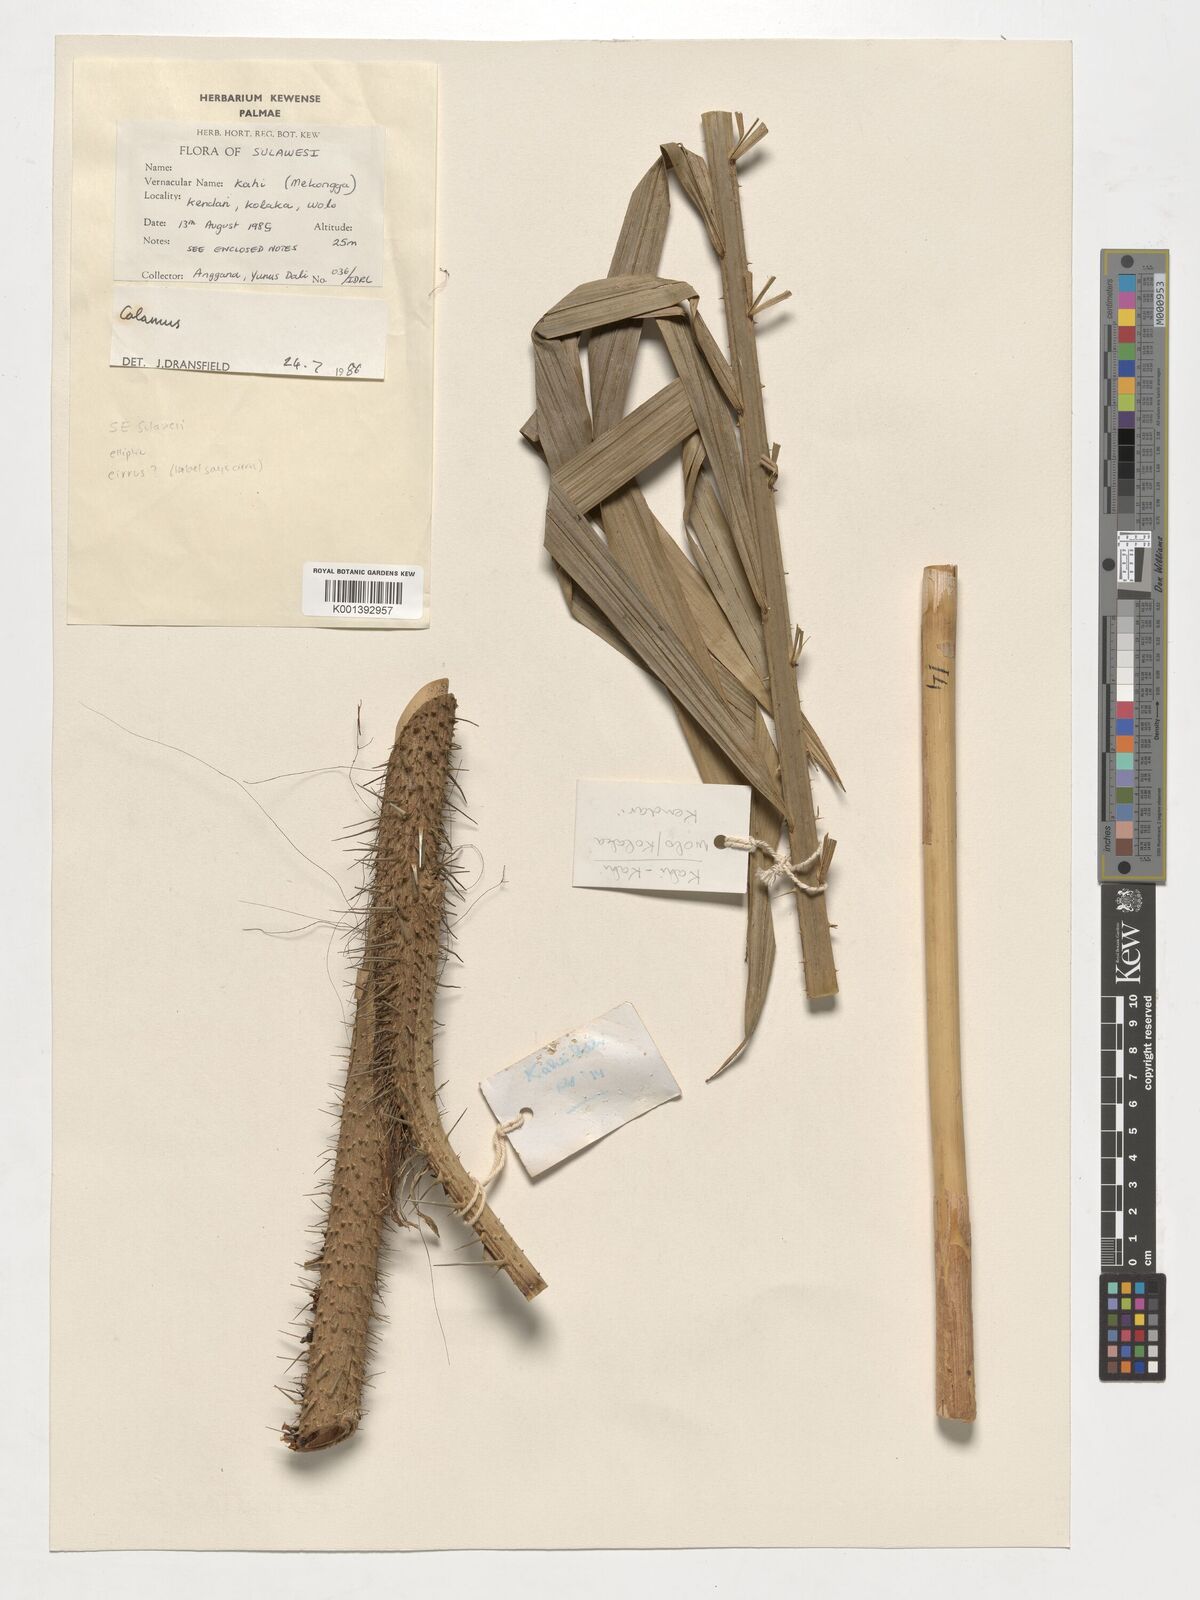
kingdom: Plantae
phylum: Tracheophyta
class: Liliopsida
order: Arecales
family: Arecaceae
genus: Calamus
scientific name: Calamus
